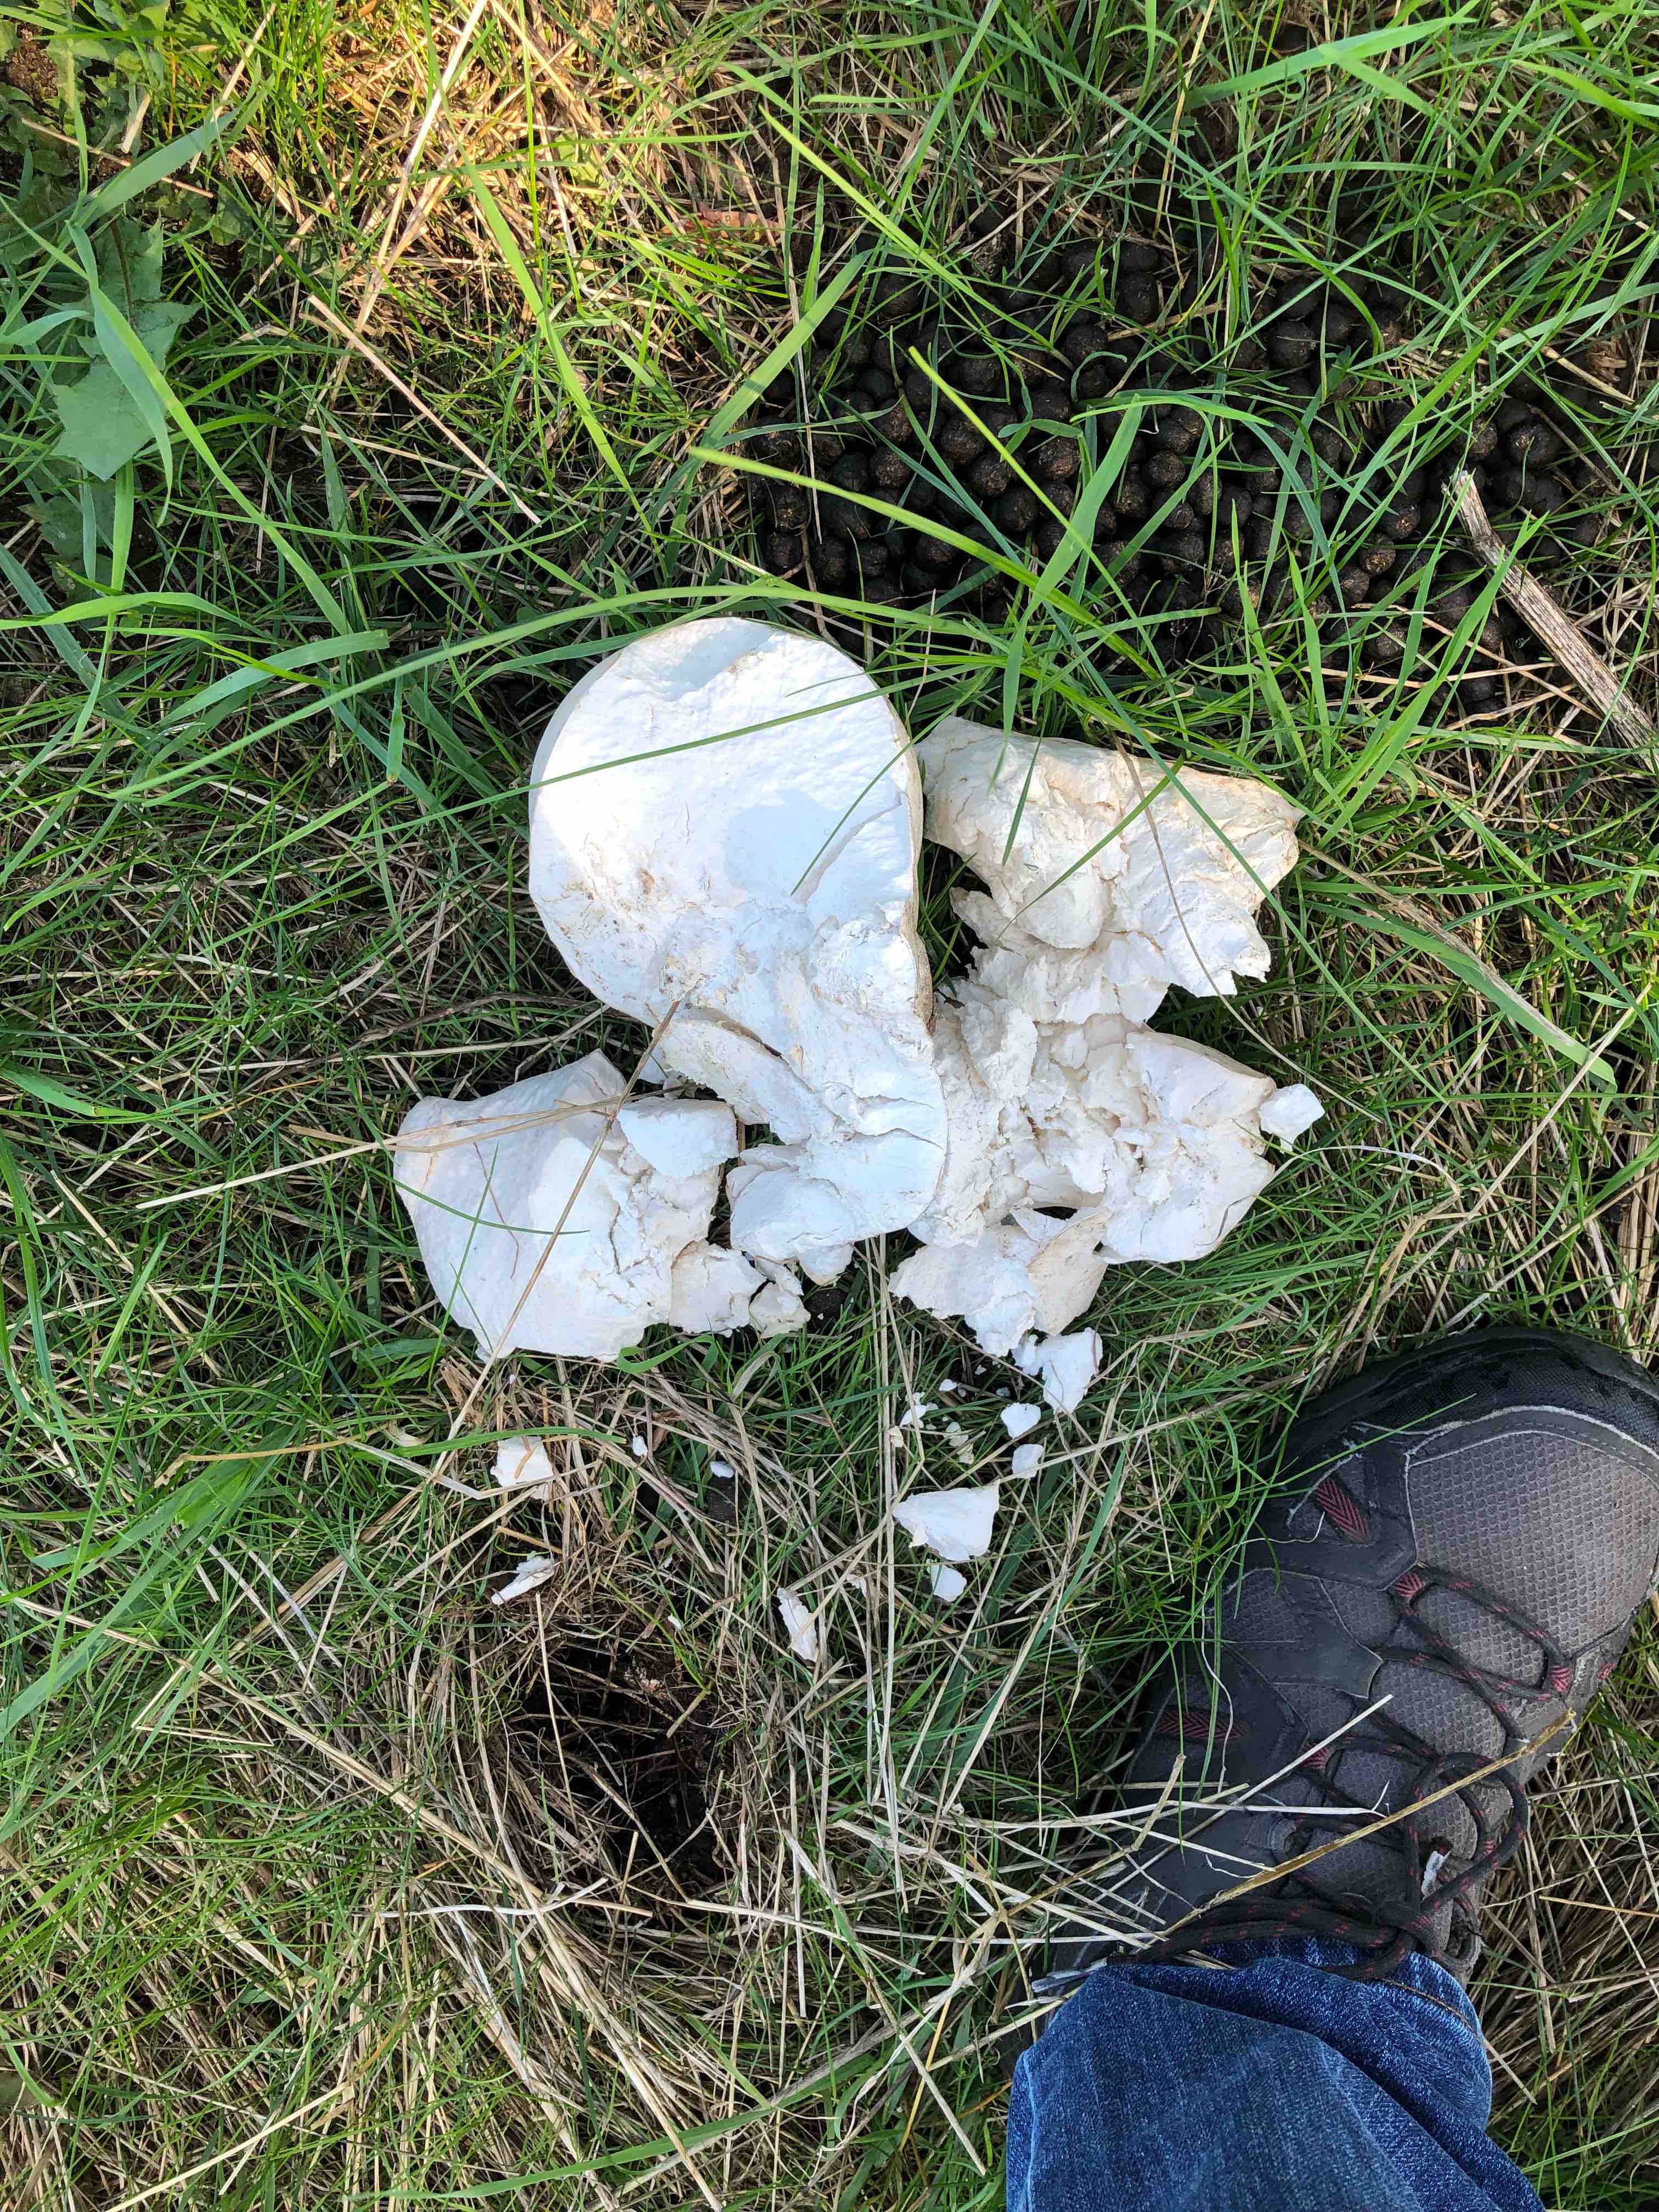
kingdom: Fungi
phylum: Basidiomycota
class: Agaricomycetes
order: Agaricales
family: Lycoperdaceae
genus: Calvatia
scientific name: Calvatia gigantea
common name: kæmpestøvbold
